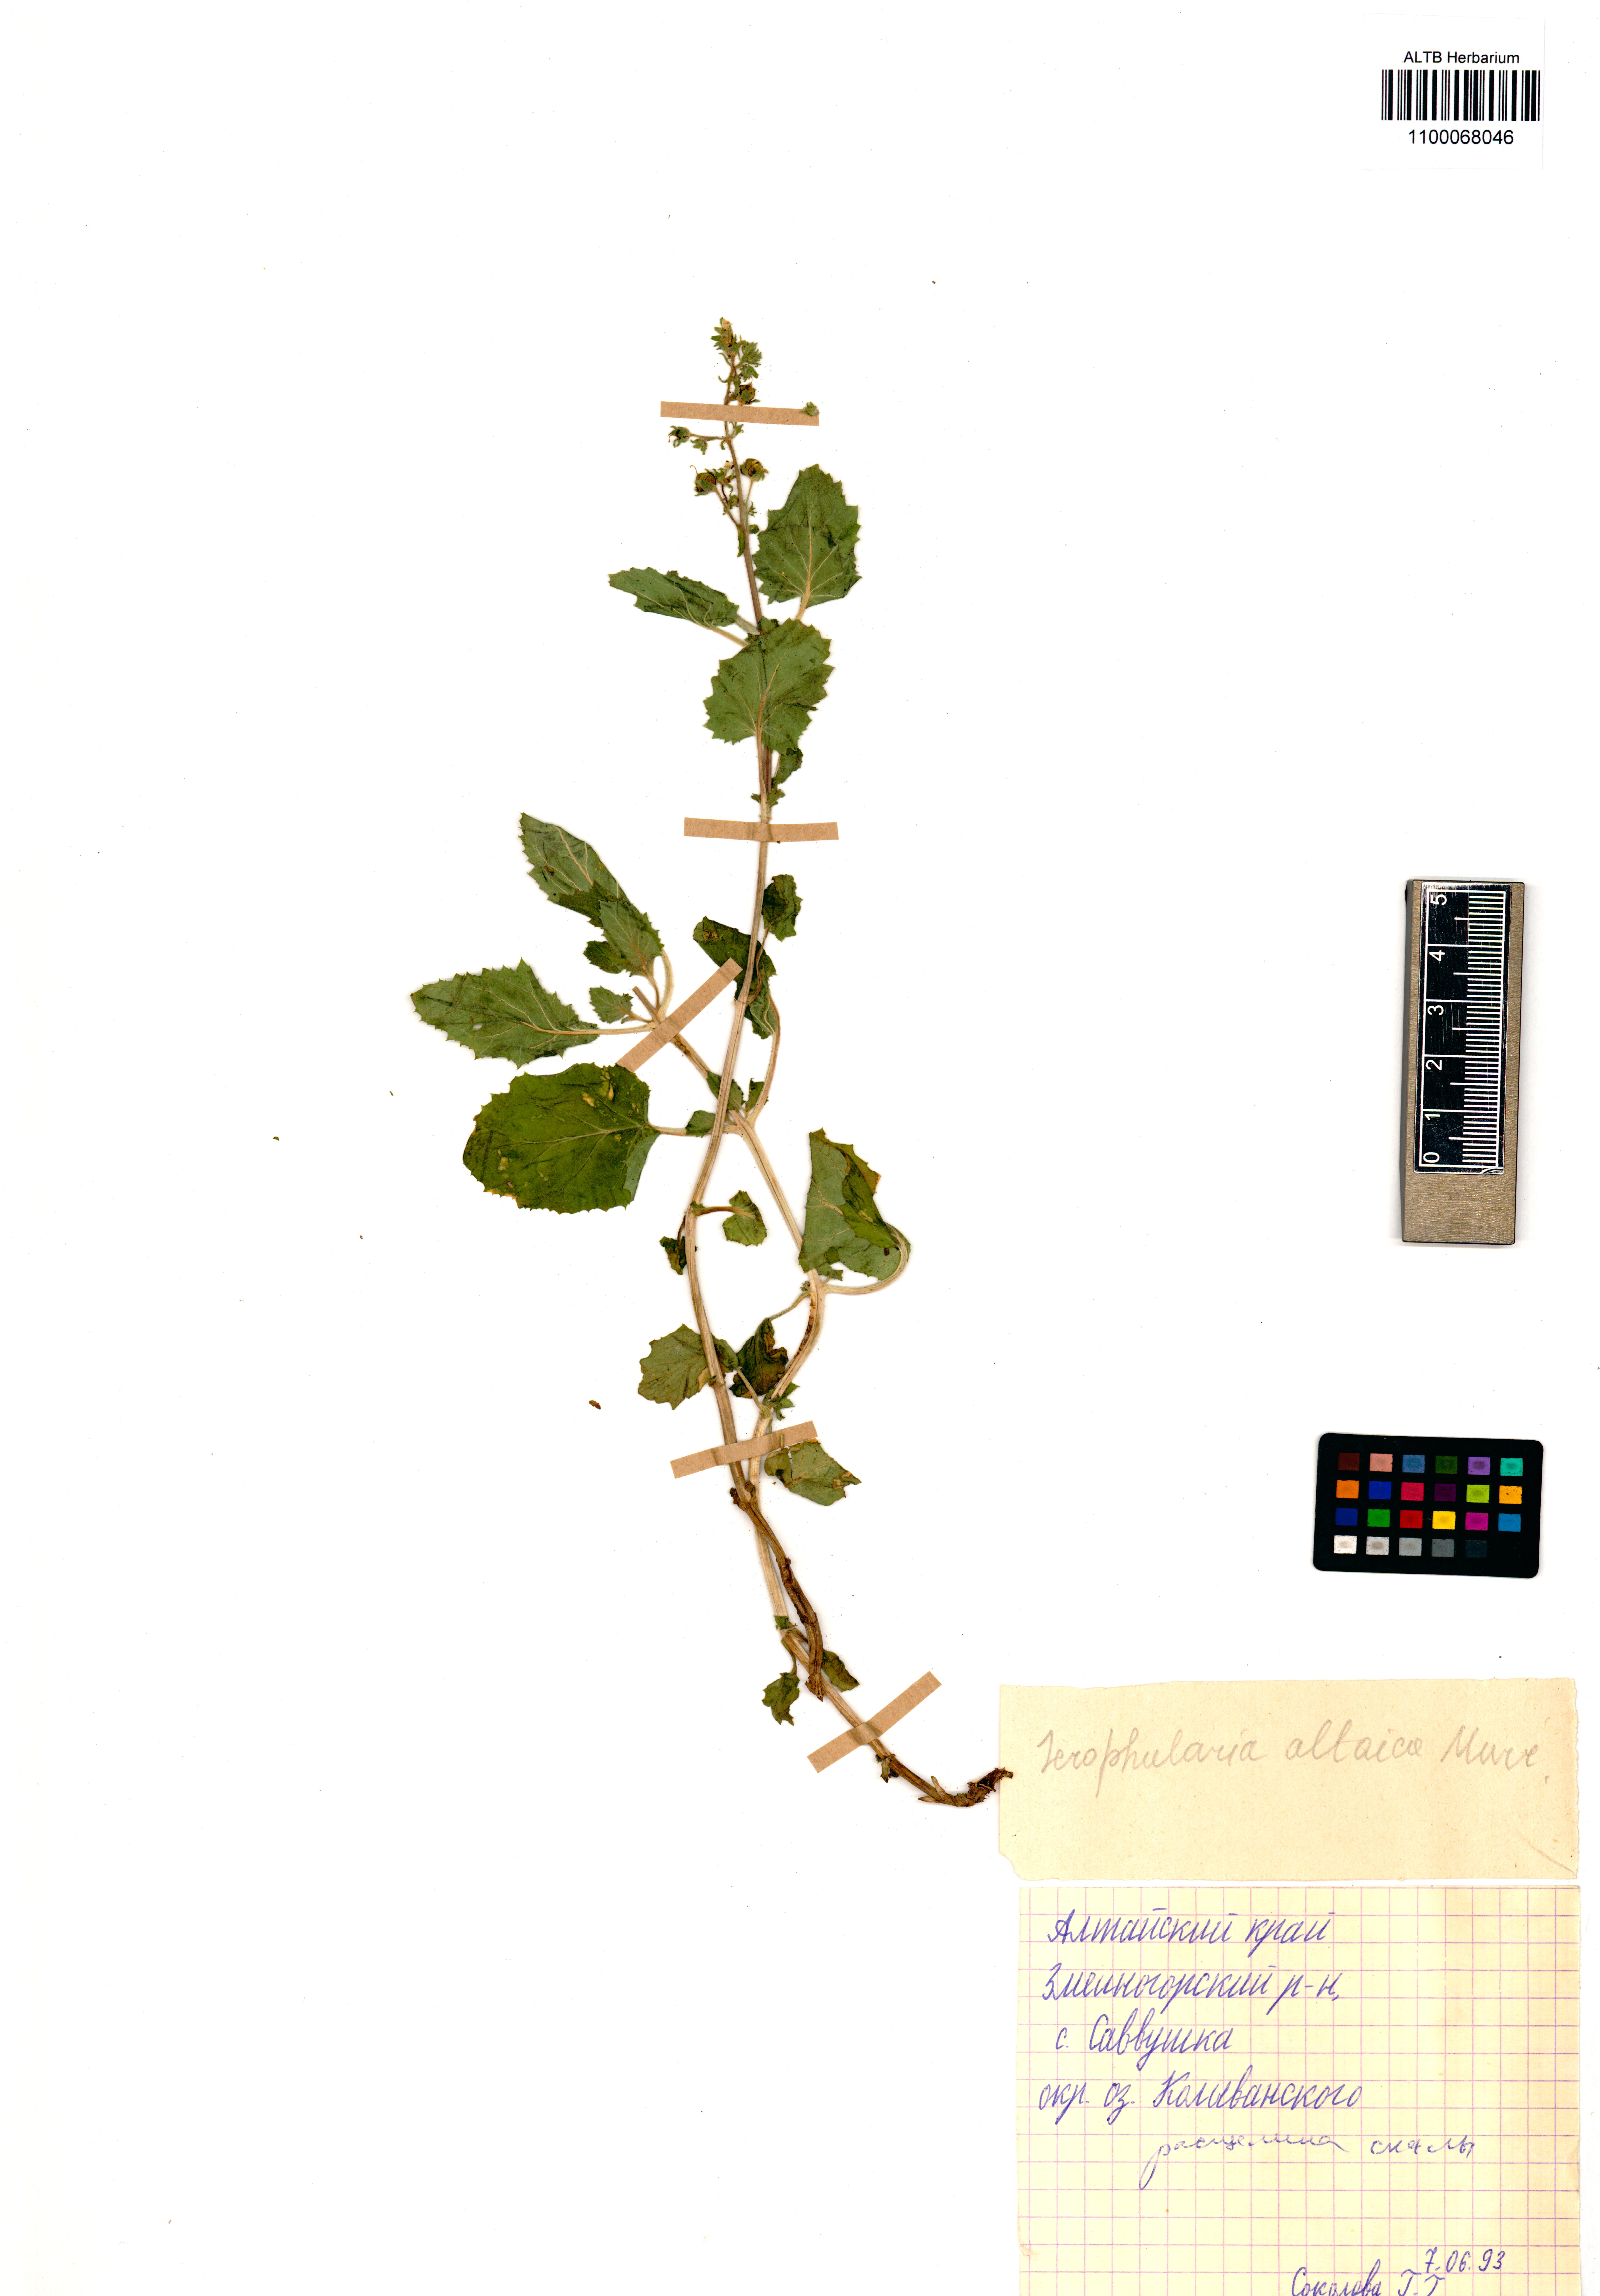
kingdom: Plantae
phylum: Tracheophyta
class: Magnoliopsida
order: Lamiales
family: Scrophulariaceae
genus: Scrophularia
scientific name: Scrophularia altaica
